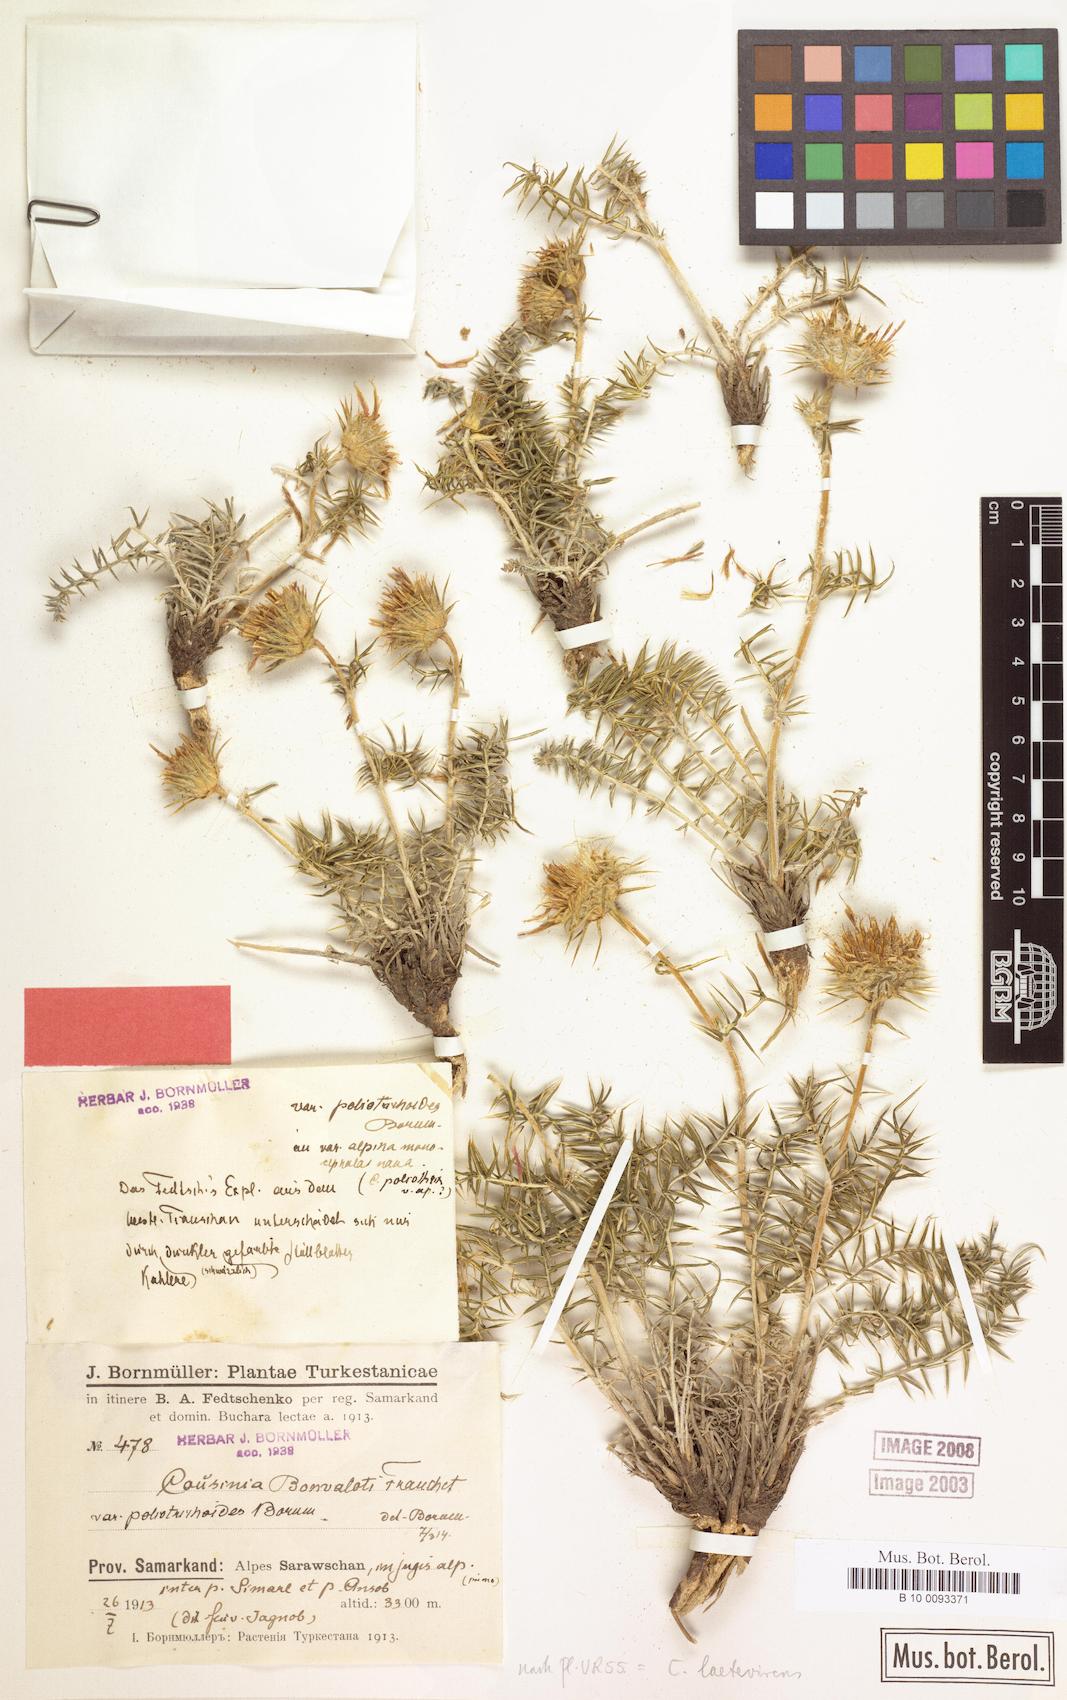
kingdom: Plantae
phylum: Tracheophyta
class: Magnoliopsida
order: Asterales
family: Asteraceae
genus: Cousinia
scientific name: Cousinia laetevirens
